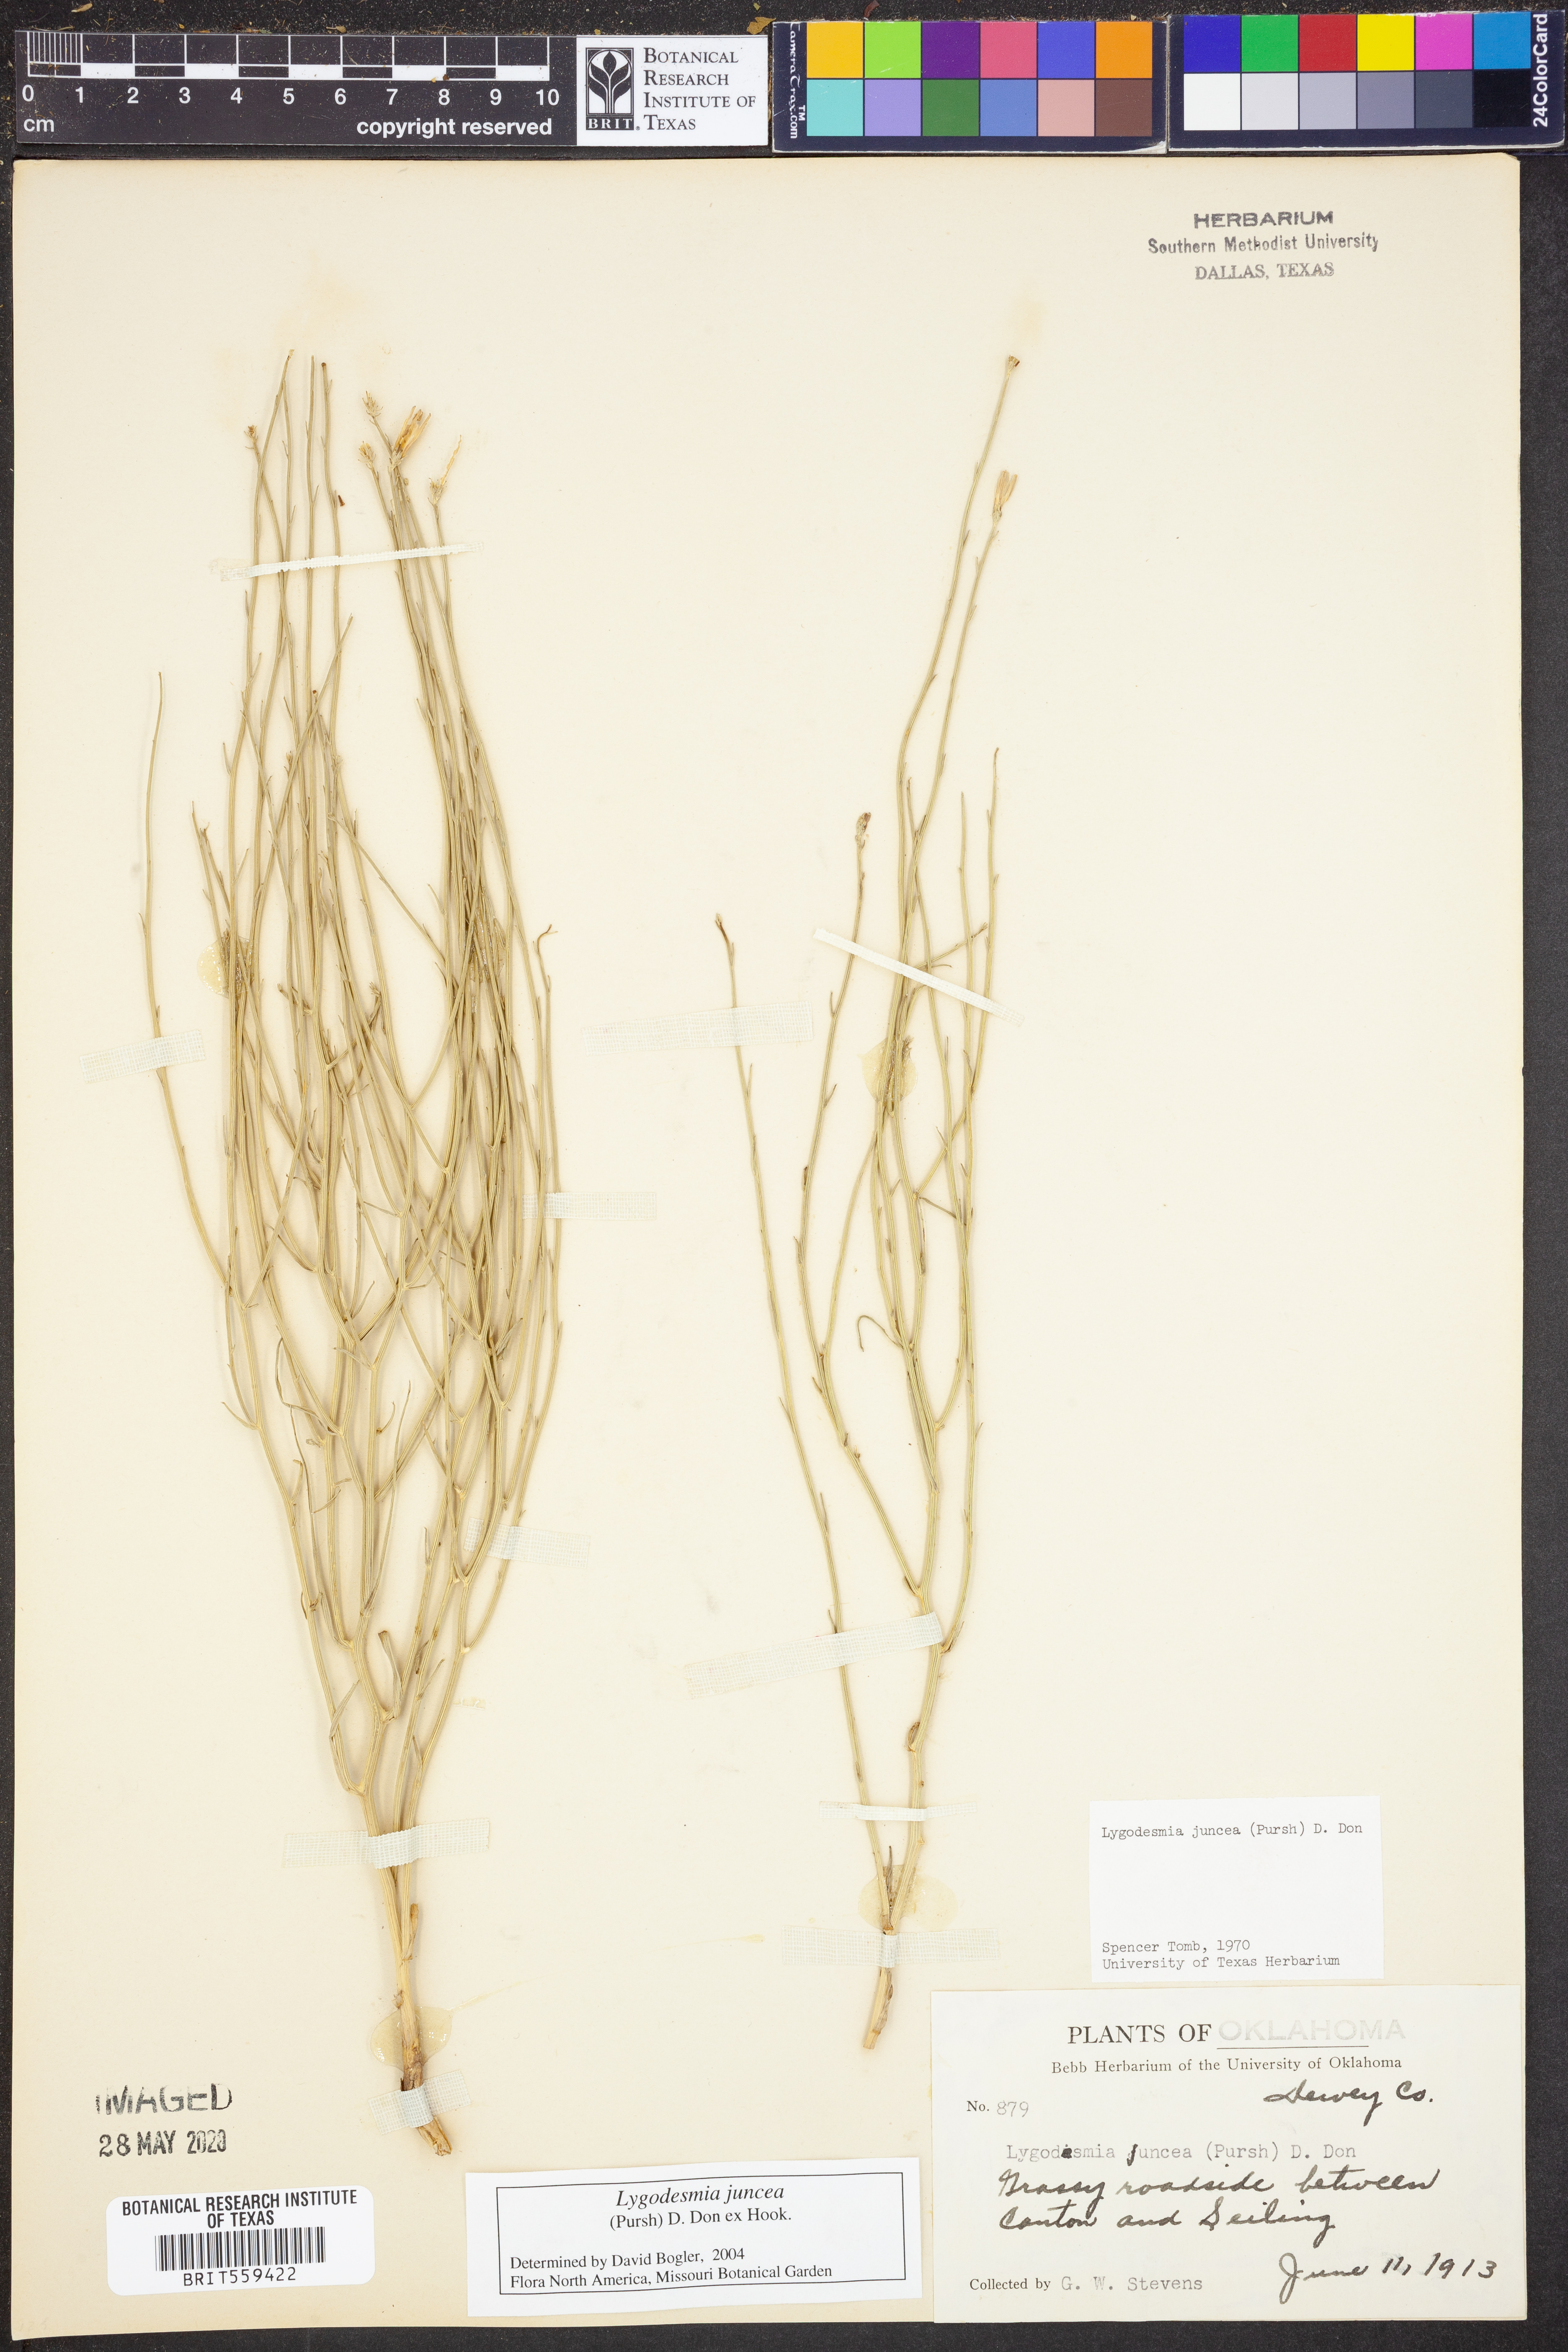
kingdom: Plantae
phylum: Tracheophyta
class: Magnoliopsida
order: Asterales
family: Asteraceae
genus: Lygodesmia
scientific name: Lygodesmia juncea
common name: Common skeletonweed
